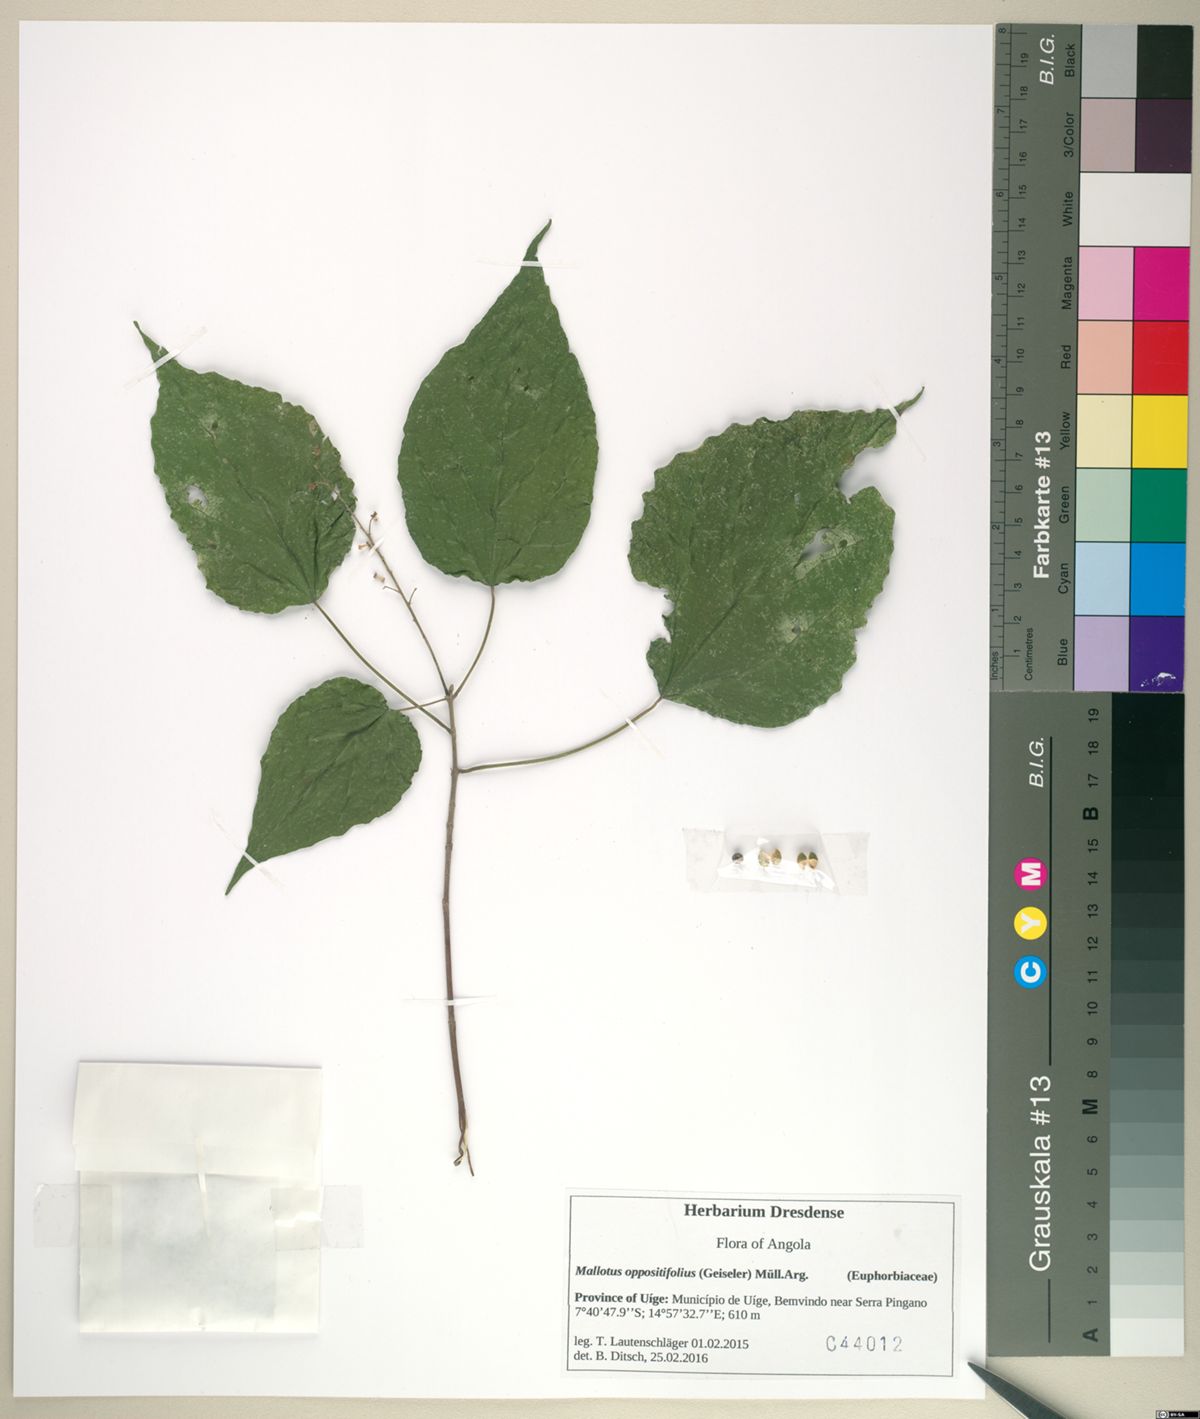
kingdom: Plantae
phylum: Tracheophyta
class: Magnoliopsida
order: Malpighiales
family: Euphorbiaceae
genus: Mallotus
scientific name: Mallotus oppositifolius
